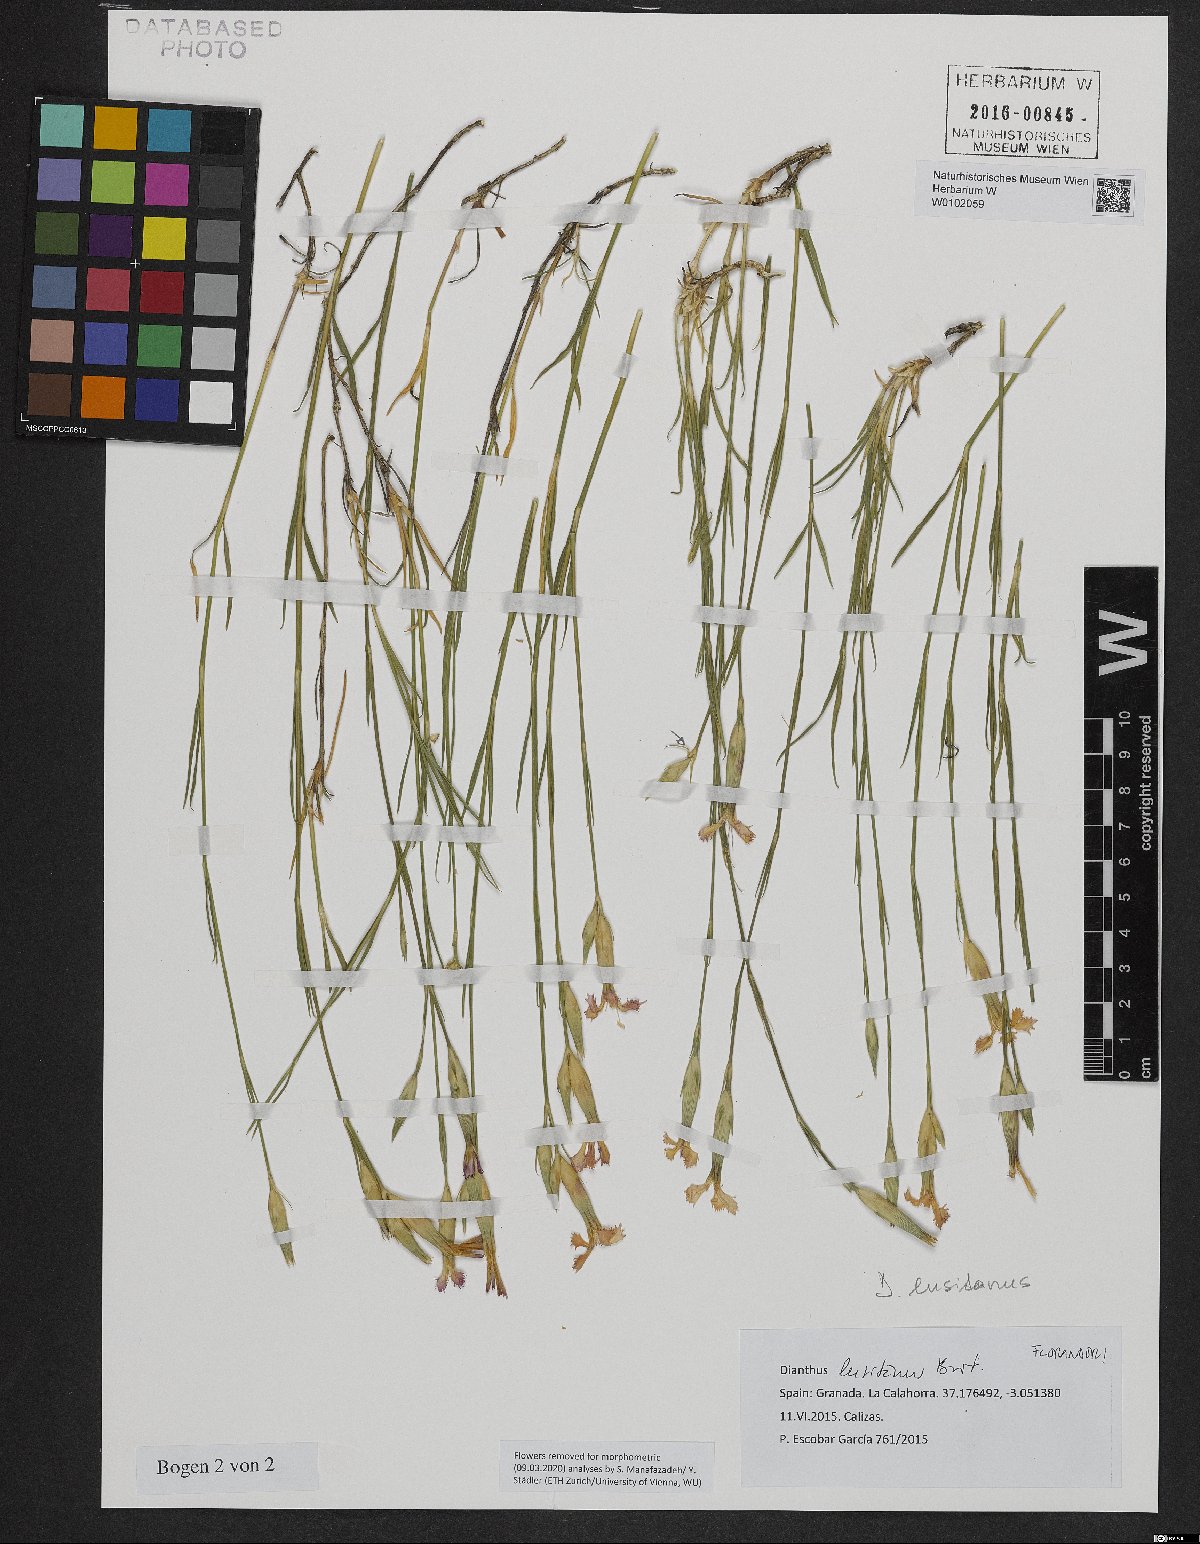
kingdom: Plantae
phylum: Tracheophyta
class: Magnoliopsida
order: Caryophyllales
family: Caryophyllaceae
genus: Dianthus
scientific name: Dianthus lusitanus
